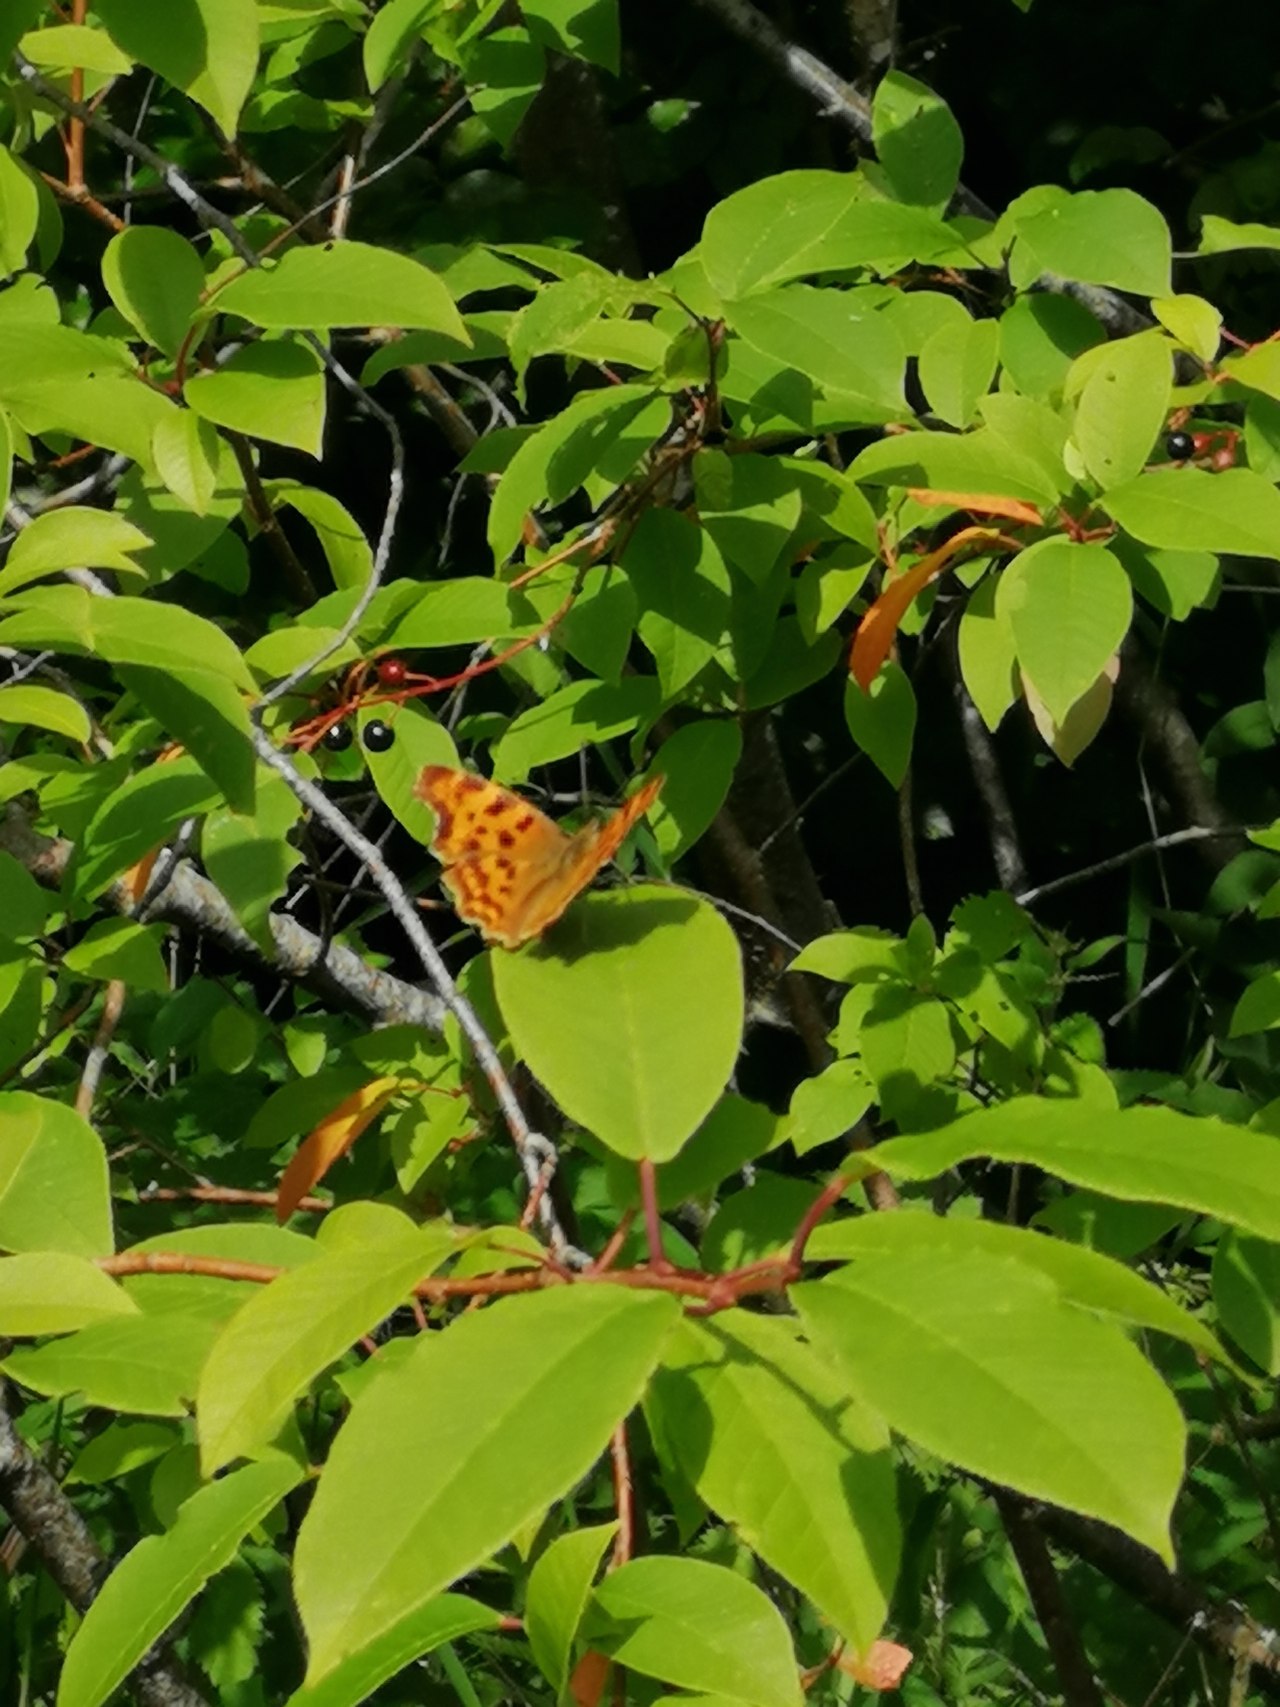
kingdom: Animalia
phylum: Arthropoda
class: Insecta
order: Lepidoptera
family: Nymphalidae
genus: Polygonia
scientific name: Polygonia c-album
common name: Det hvide C
